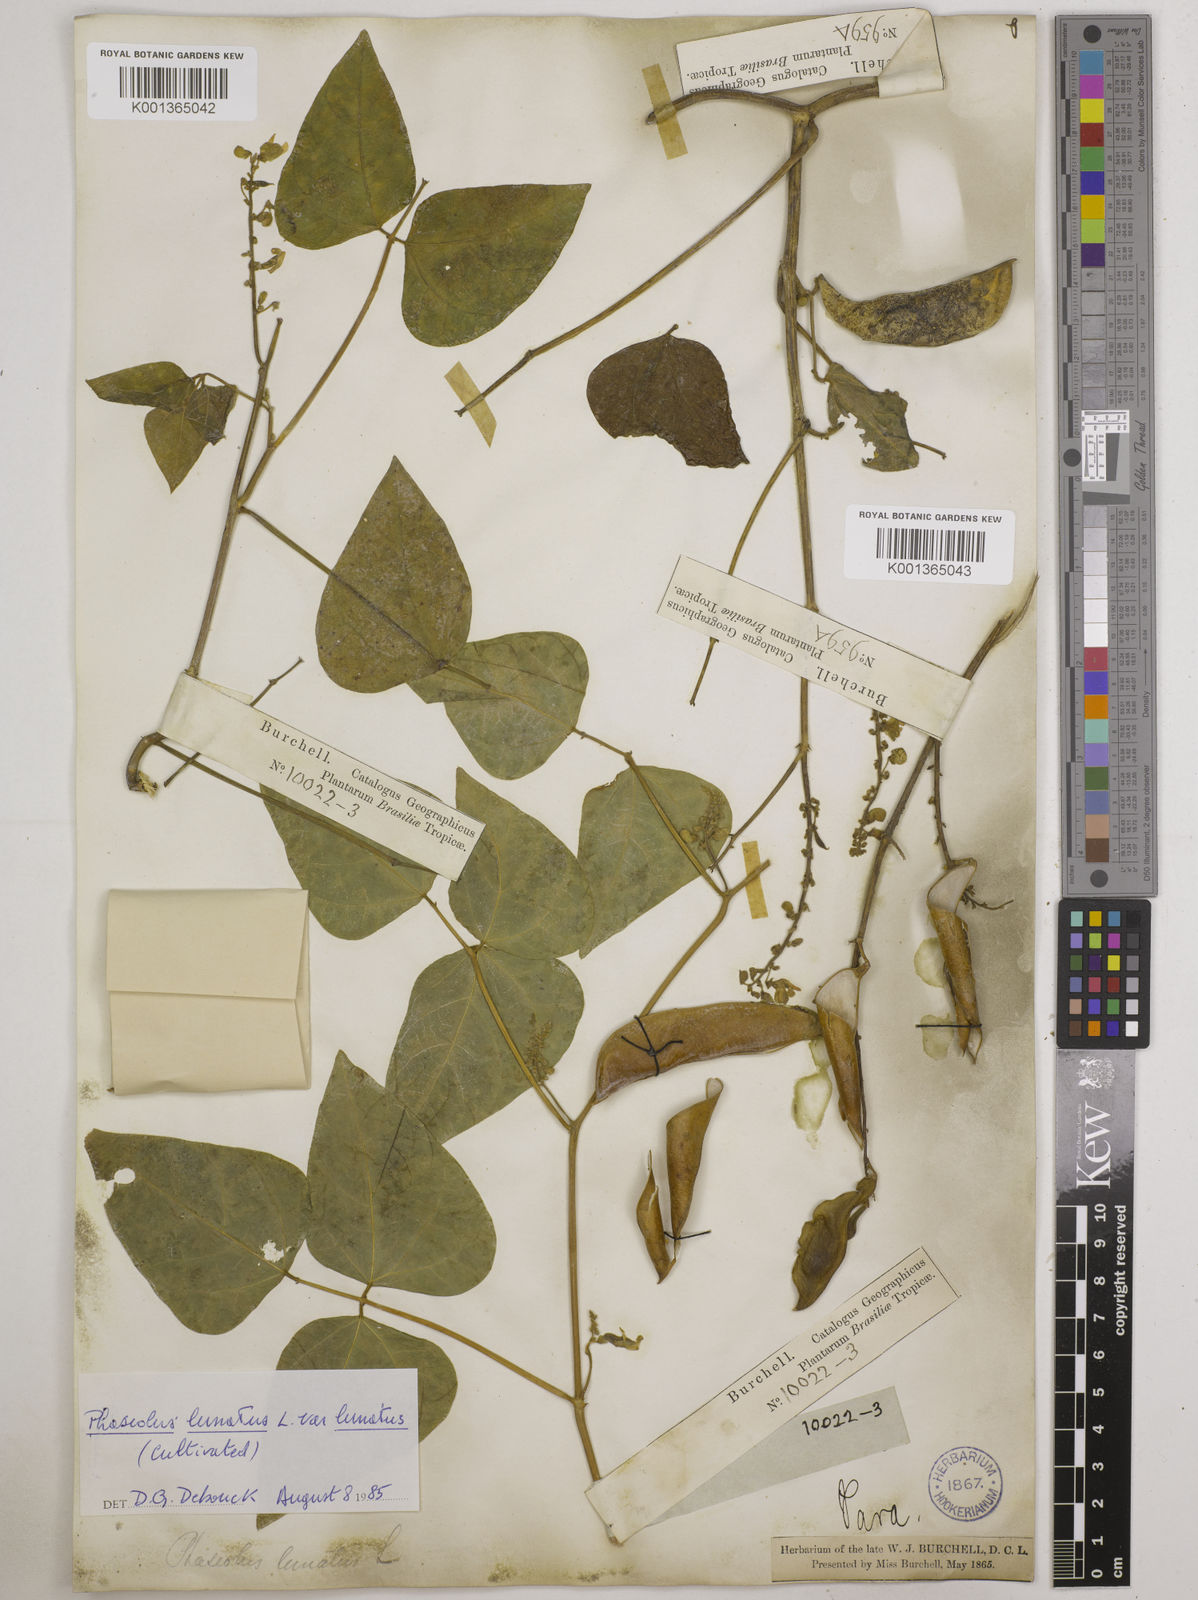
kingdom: Plantae
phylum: Tracheophyta
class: Magnoliopsida
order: Fabales
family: Fabaceae
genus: Phaseolus
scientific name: Phaseolus
